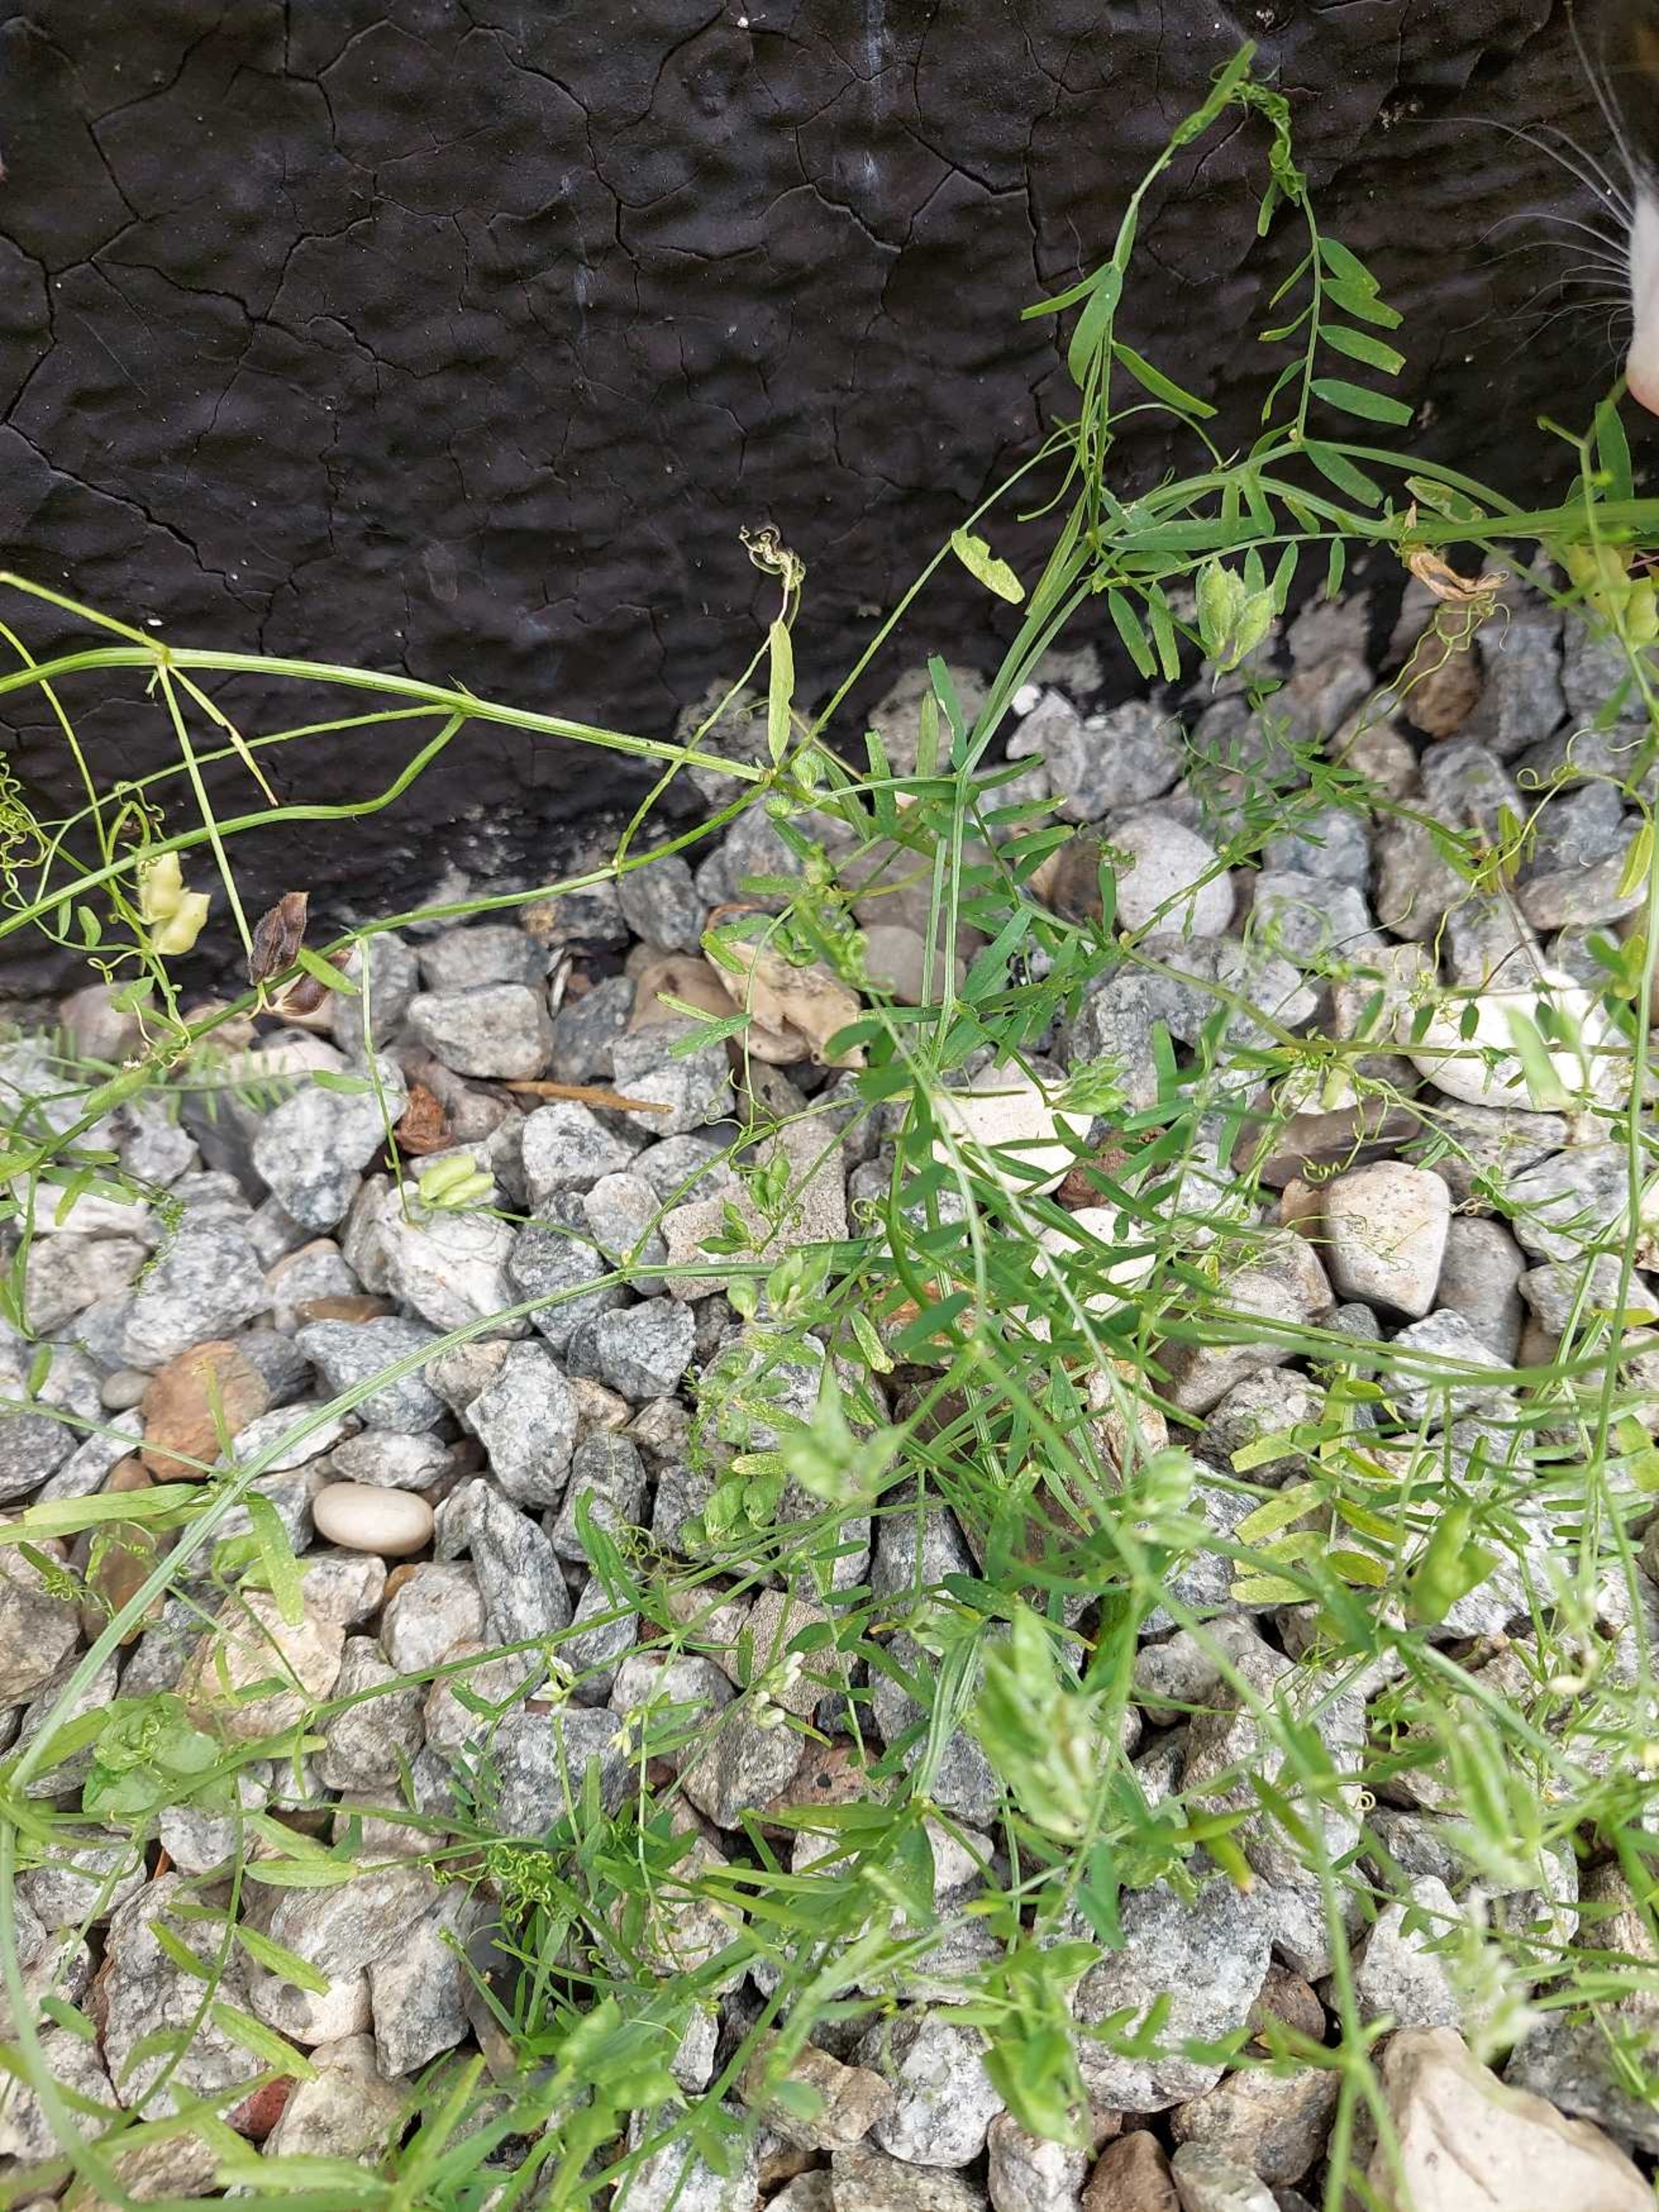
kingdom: Plantae
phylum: Tracheophyta
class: Magnoliopsida
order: Fabales
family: Fabaceae
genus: Vicia
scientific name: Vicia hirsuta
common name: Tofrøet vikke
